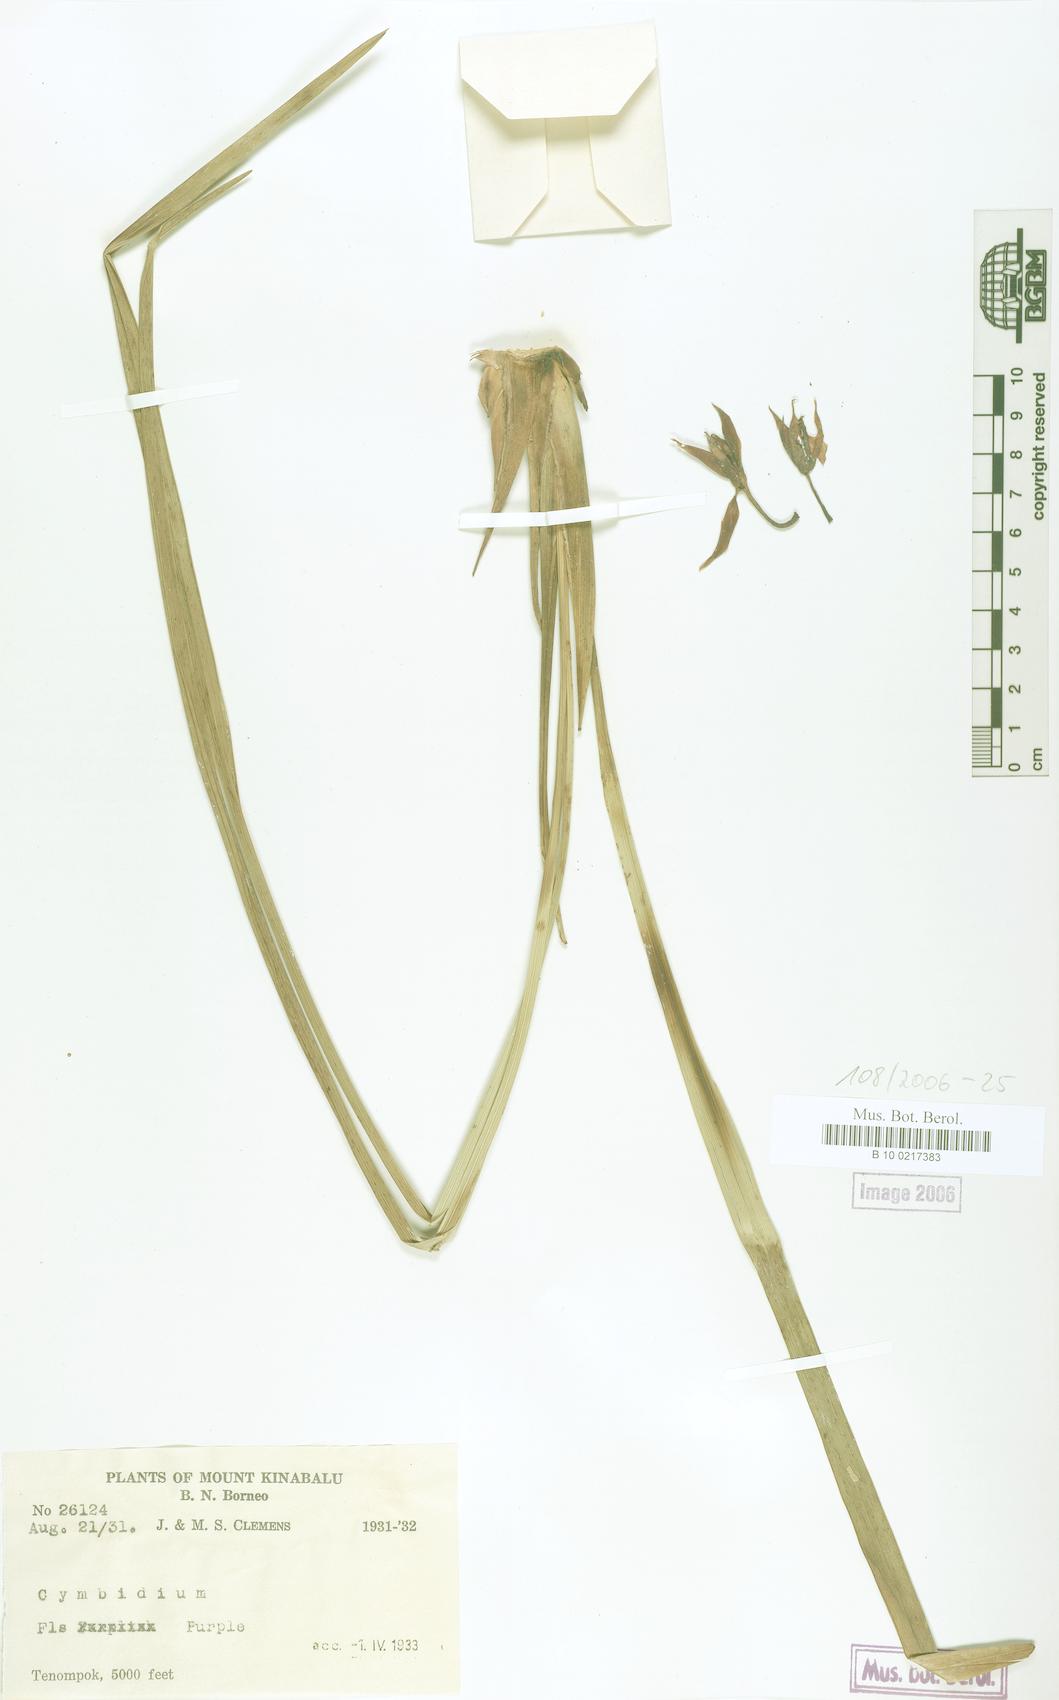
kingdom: Plantae
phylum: Tracheophyta
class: Liliopsida
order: Asparagales
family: Orchidaceae
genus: Cymbidium
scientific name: Cymbidium
